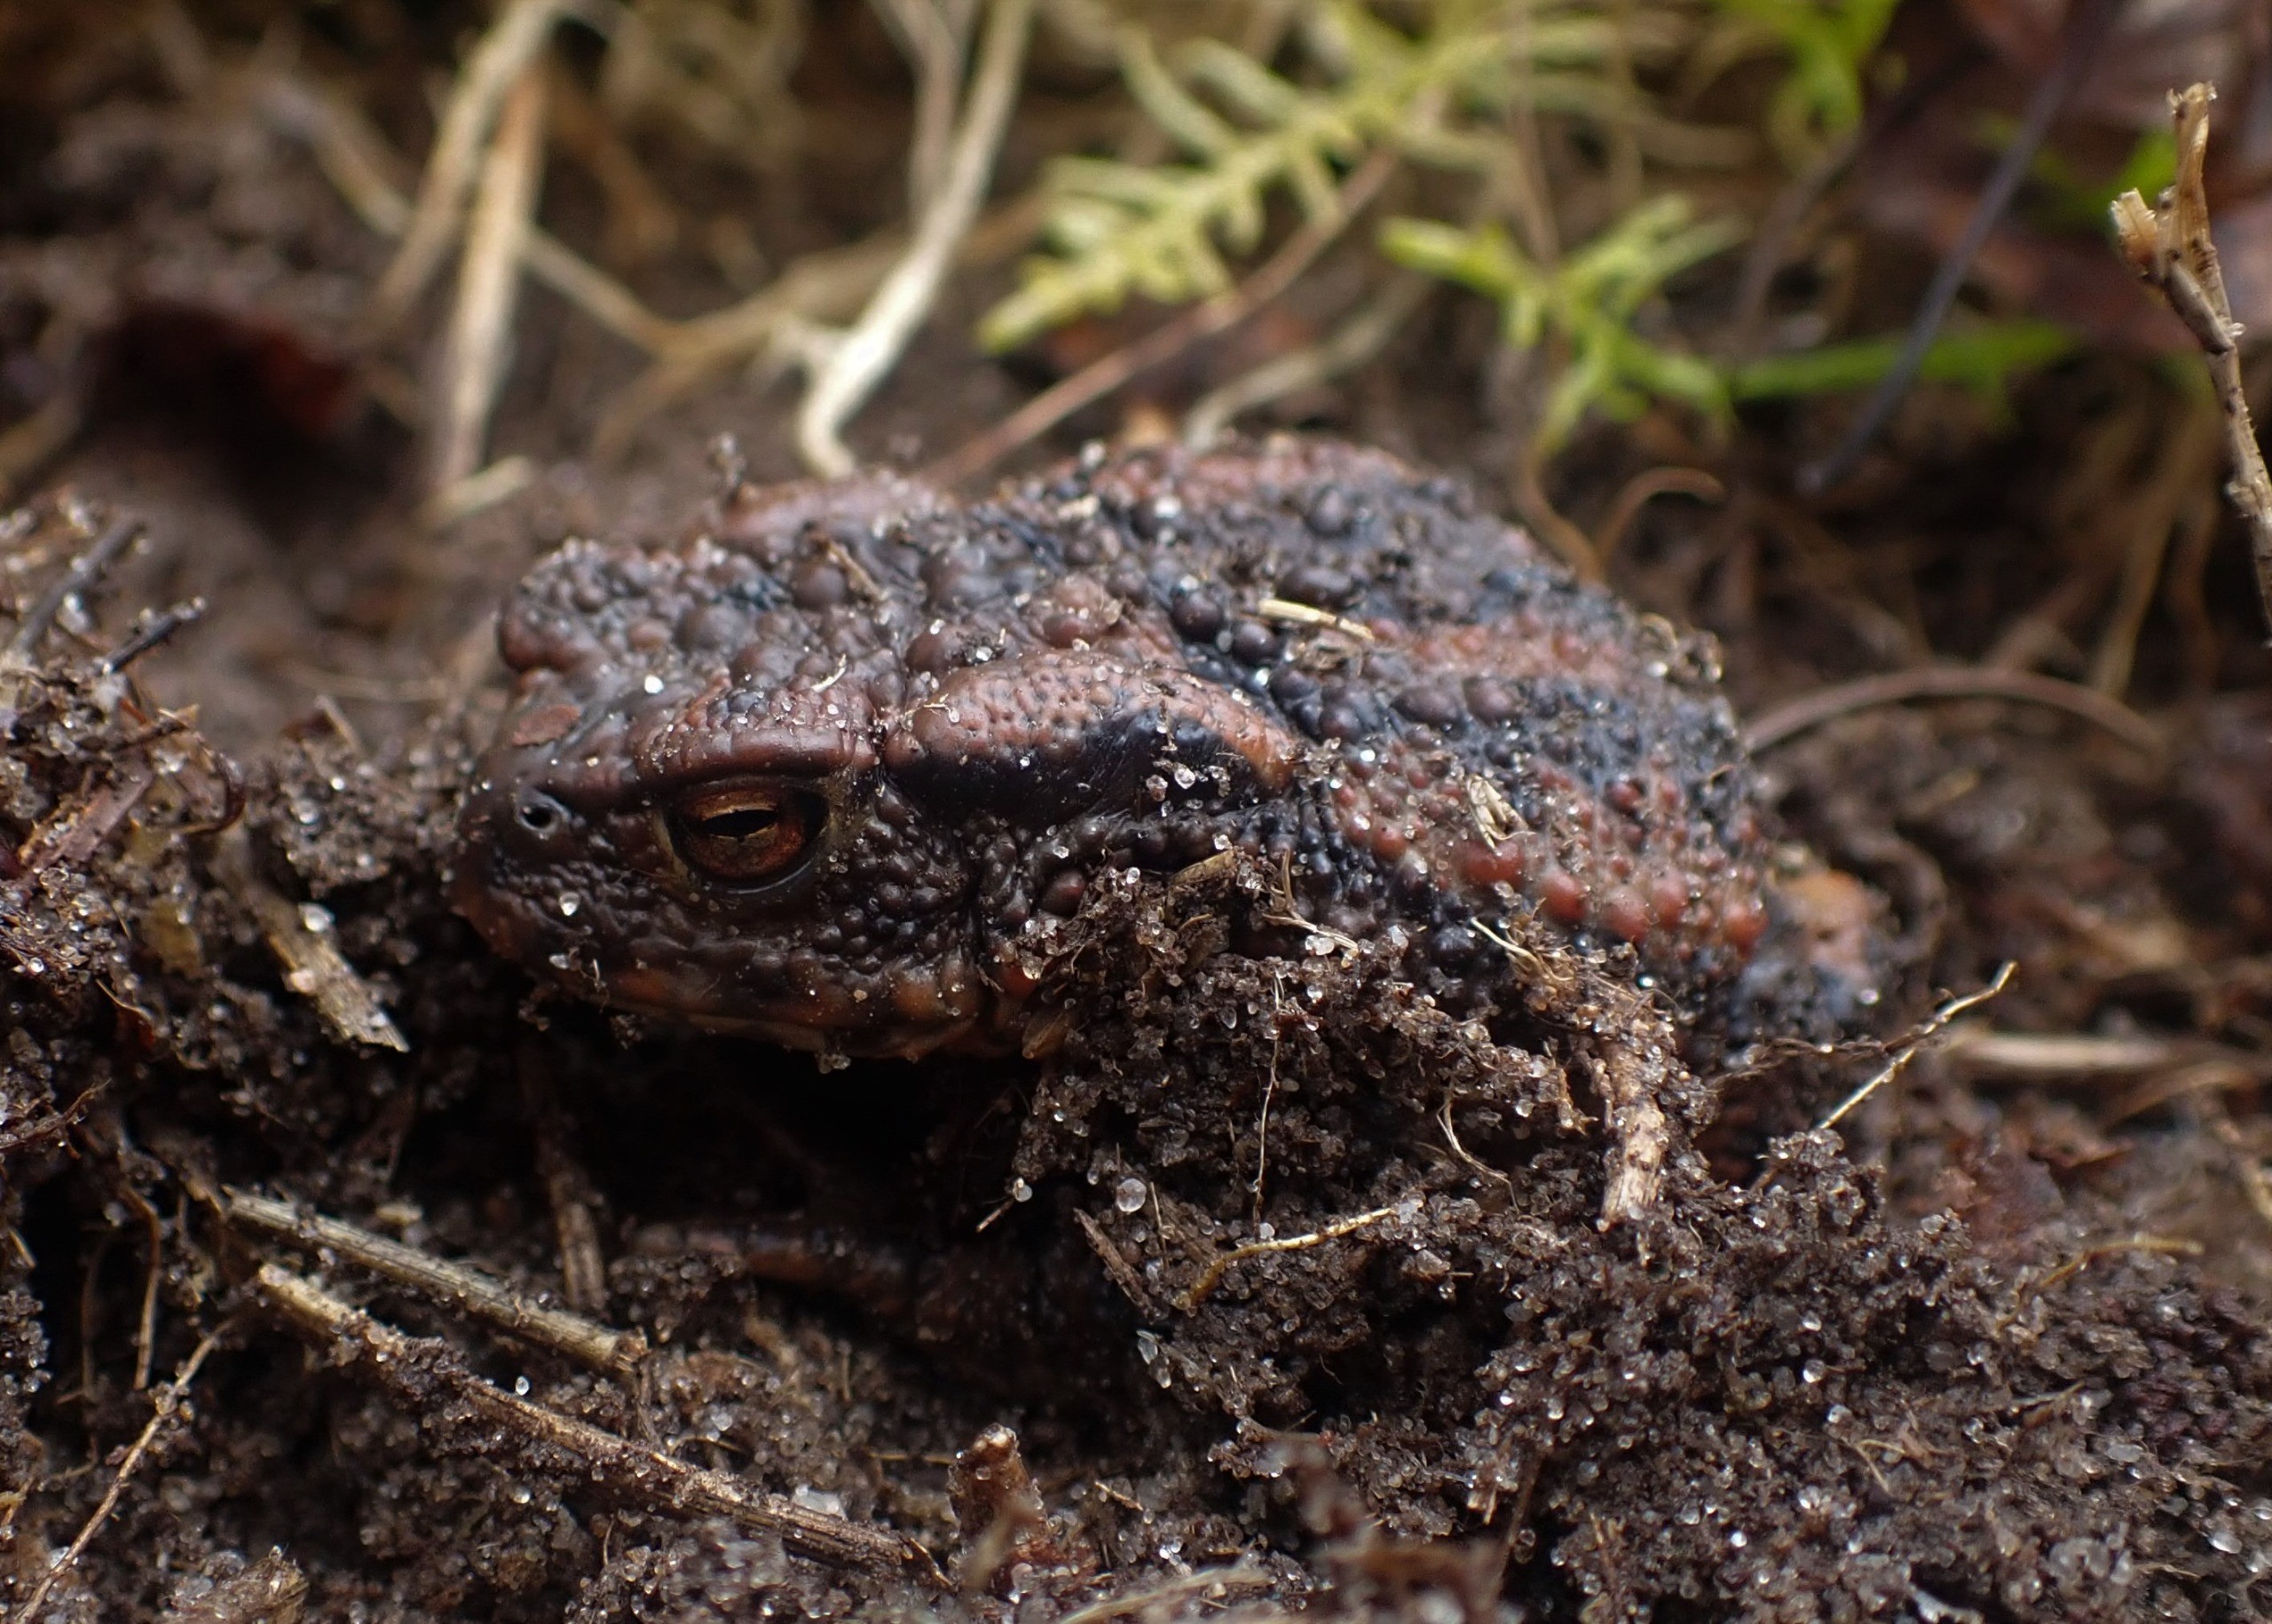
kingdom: Animalia
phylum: Chordata
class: Amphibia
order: Anura
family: Bufonidae
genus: Bufo
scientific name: Bufo bufo
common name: Skrubtudse
